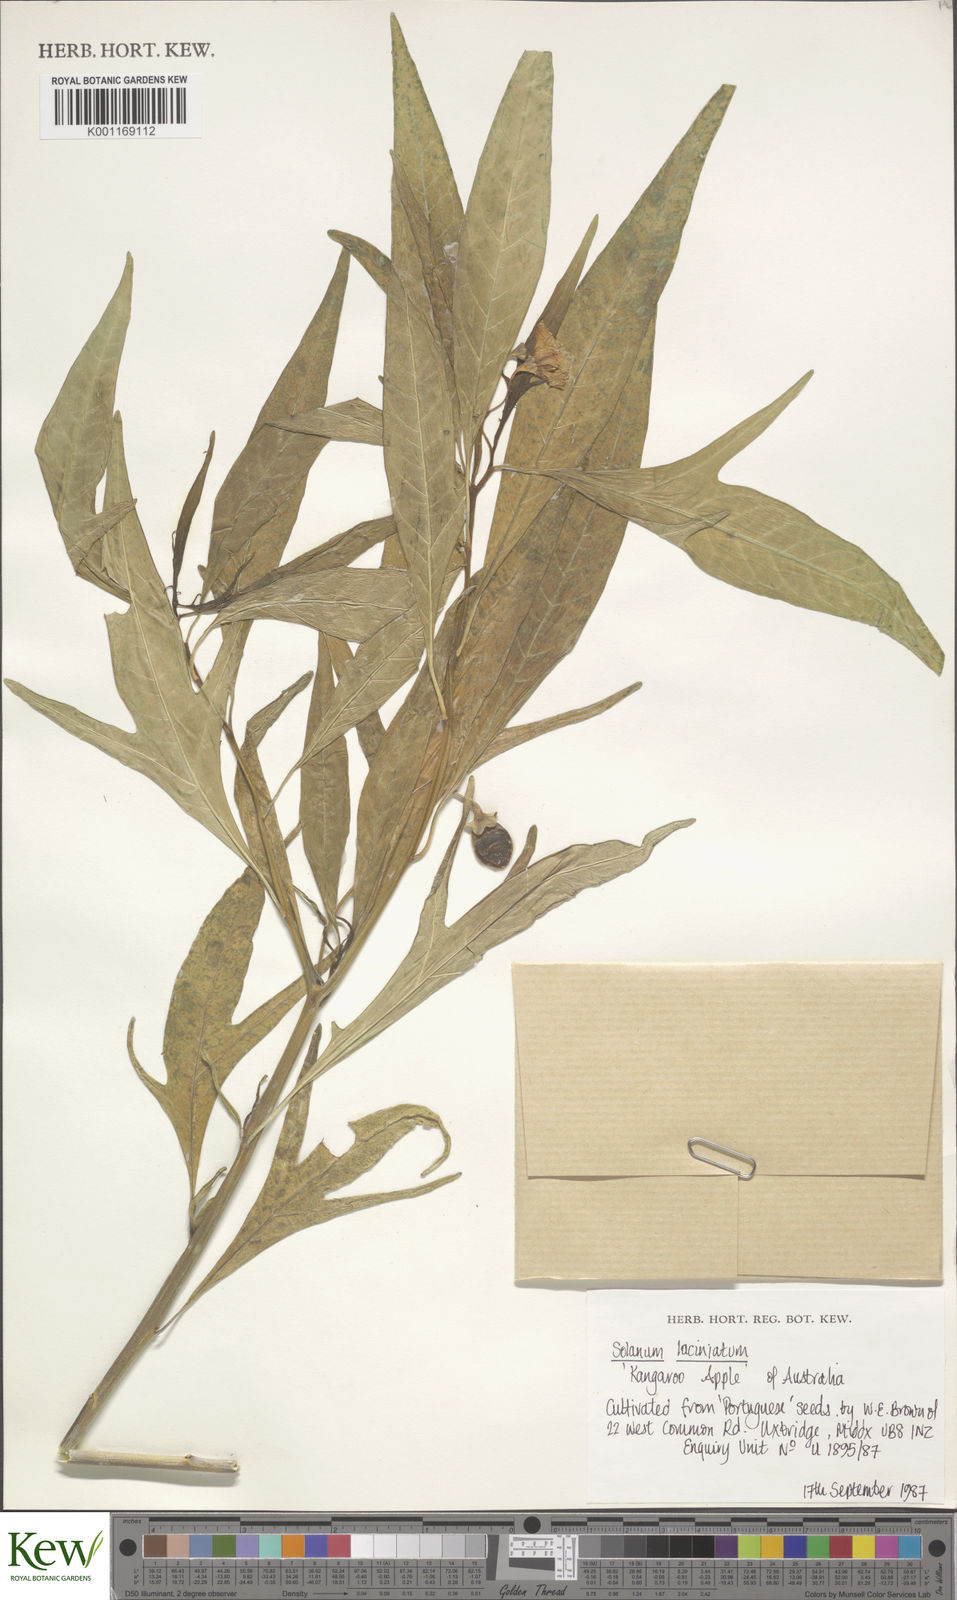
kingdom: Plantae
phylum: Tracheophyta
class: Magnoliopsida
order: Solanales
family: Solanaceae
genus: Solanum
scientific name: Solanum laciniatum
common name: Kangaroo-apple
